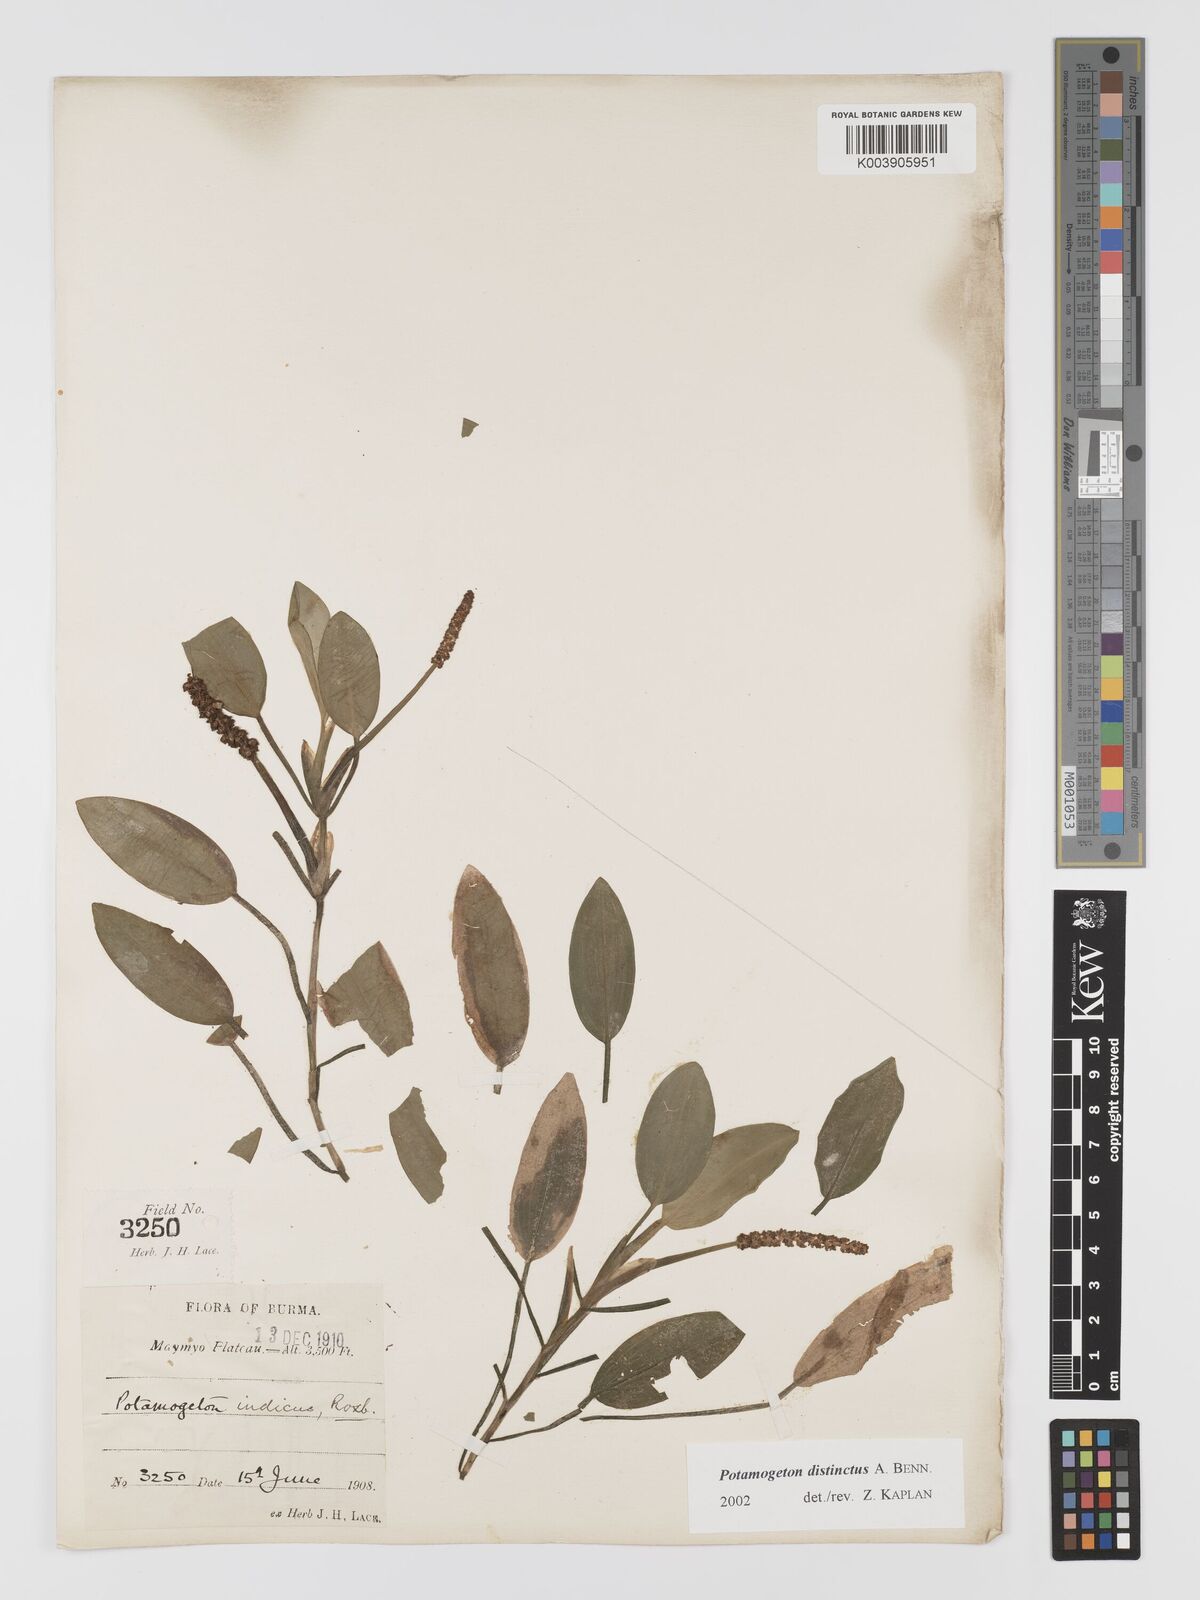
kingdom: Plantae
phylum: Tracheophyta
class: Liliopsida
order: Alismatales
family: Potamogetonaceae
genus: Potamogeton
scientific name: Potamogeton distinctus
